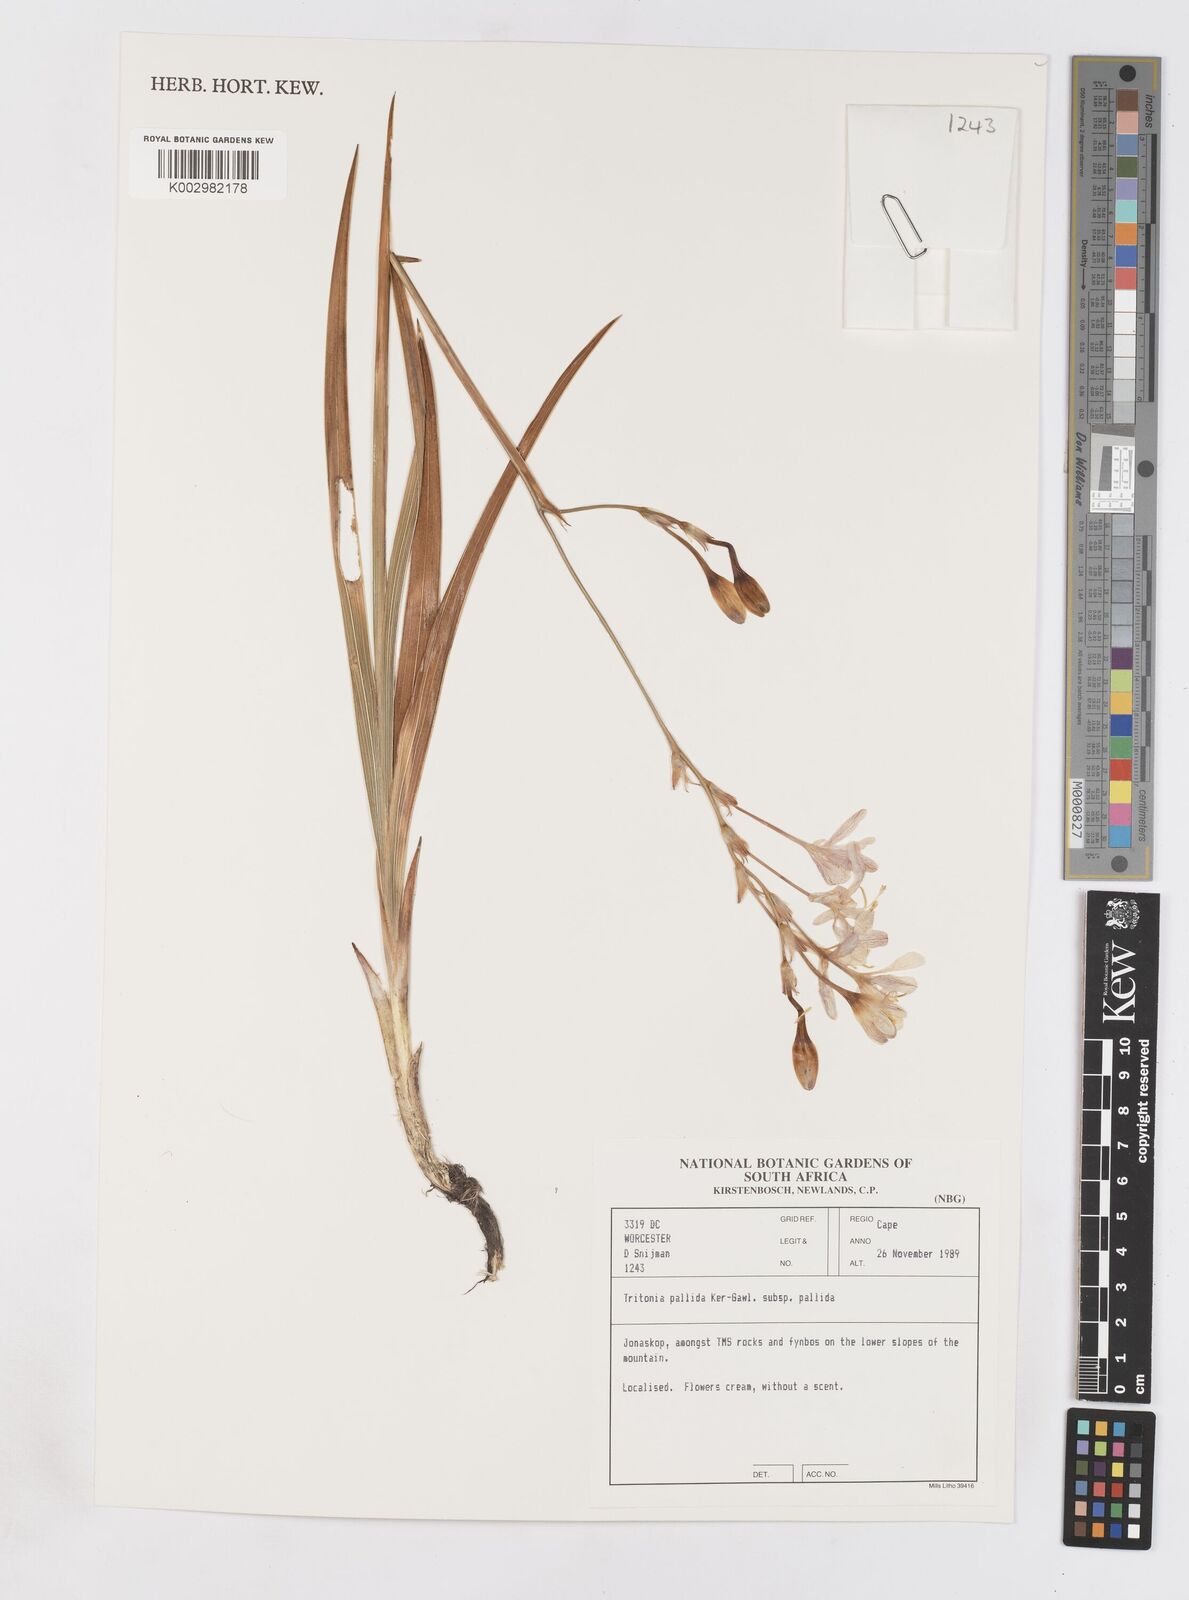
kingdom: Plantae
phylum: Tracheophyta
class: Liliopsida
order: Asparagales
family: Iridaceae
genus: Tritonia
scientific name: Tritonia pallida
